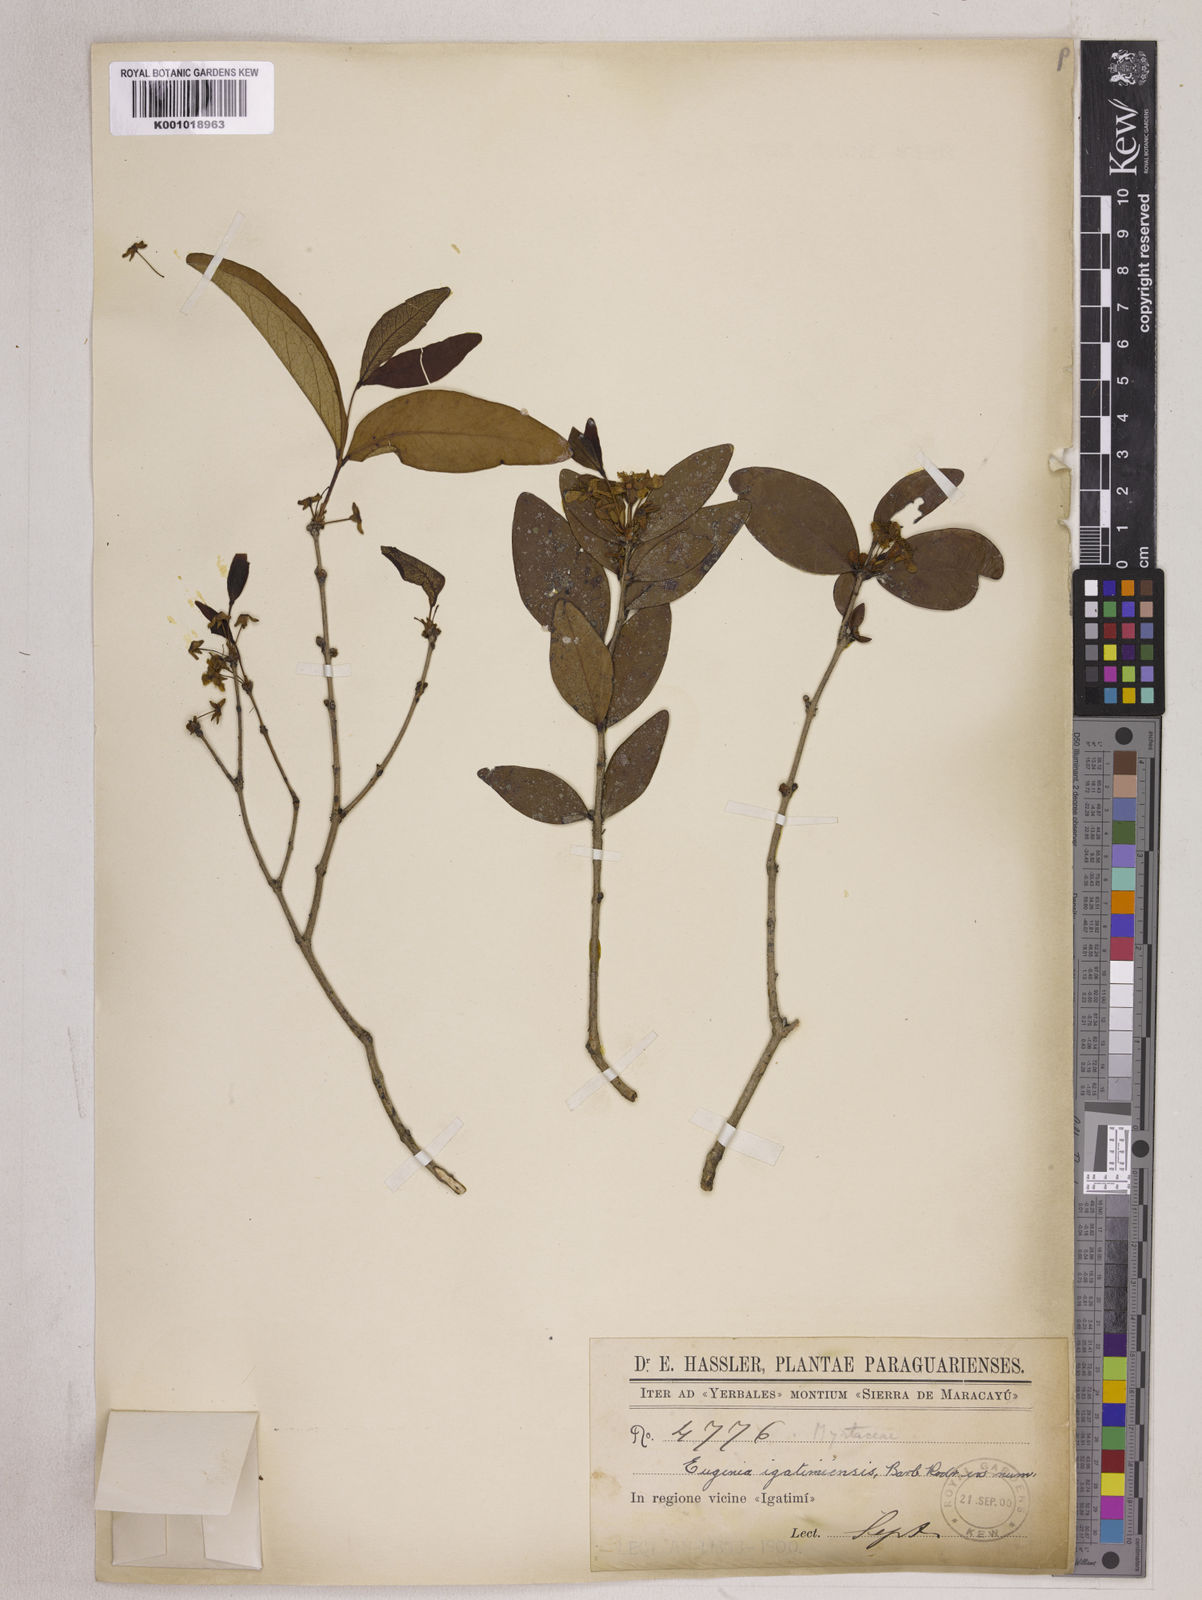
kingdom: Plantae
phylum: Tracheophyta
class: Magnoliopsida
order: Myrtales
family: Myrtaceae
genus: Eugenia
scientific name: Eugenia
